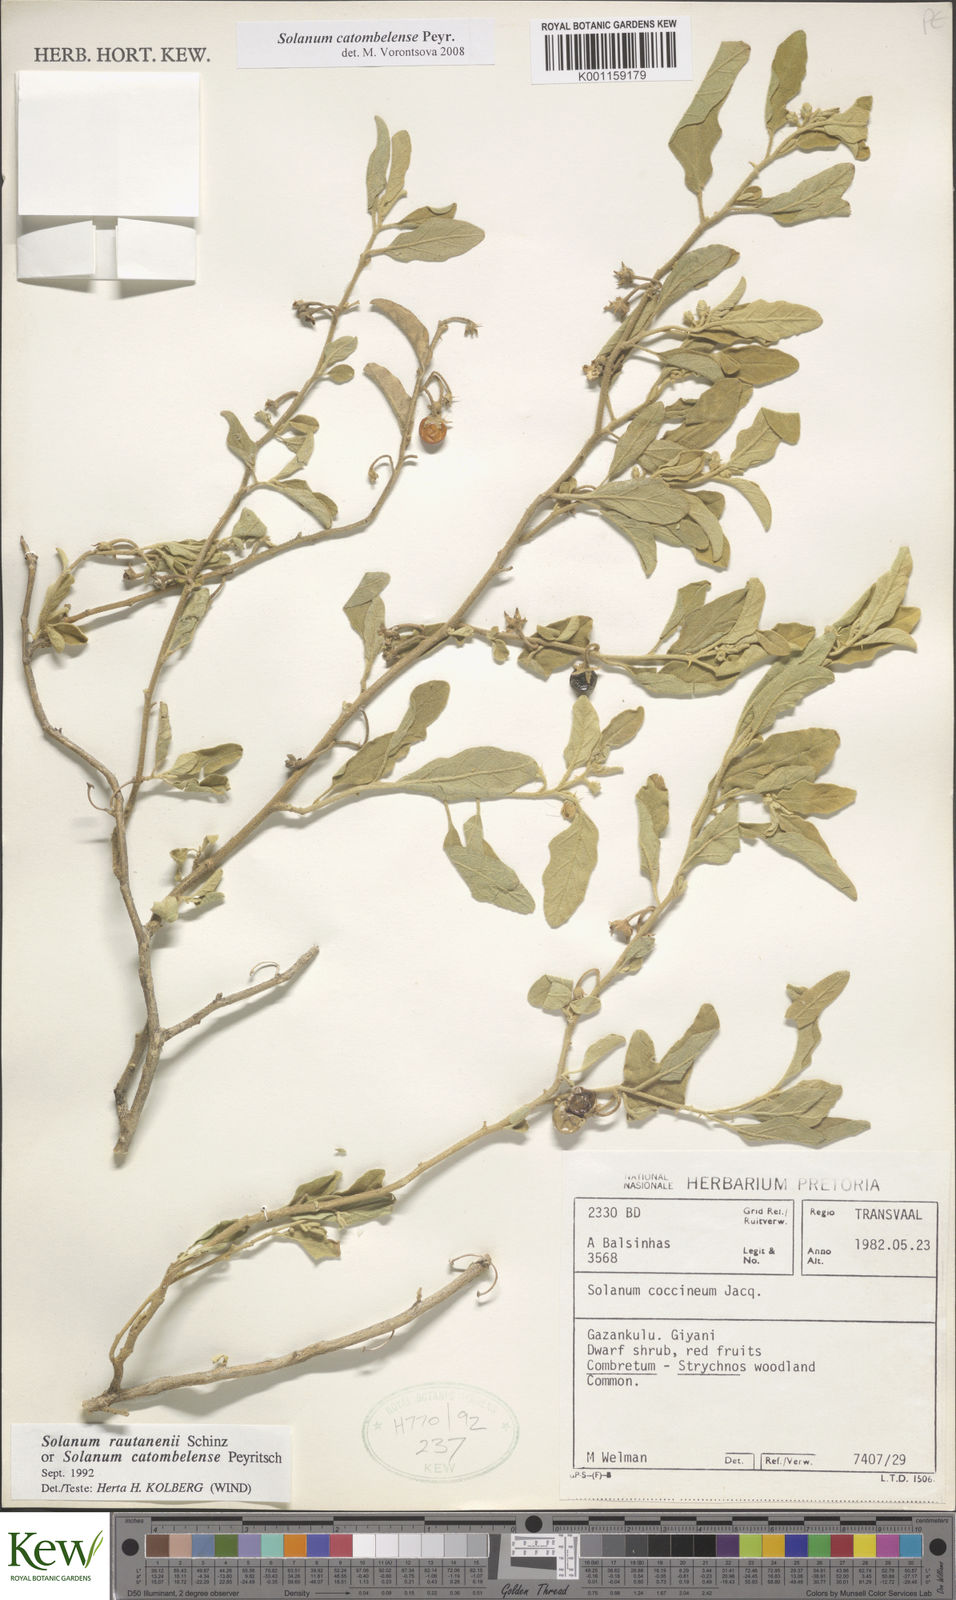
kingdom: Plantae
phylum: Tracheophyta
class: Magnoliopsida
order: Solanales
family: Solanaceae
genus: Solanum
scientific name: Solanum catombelense
